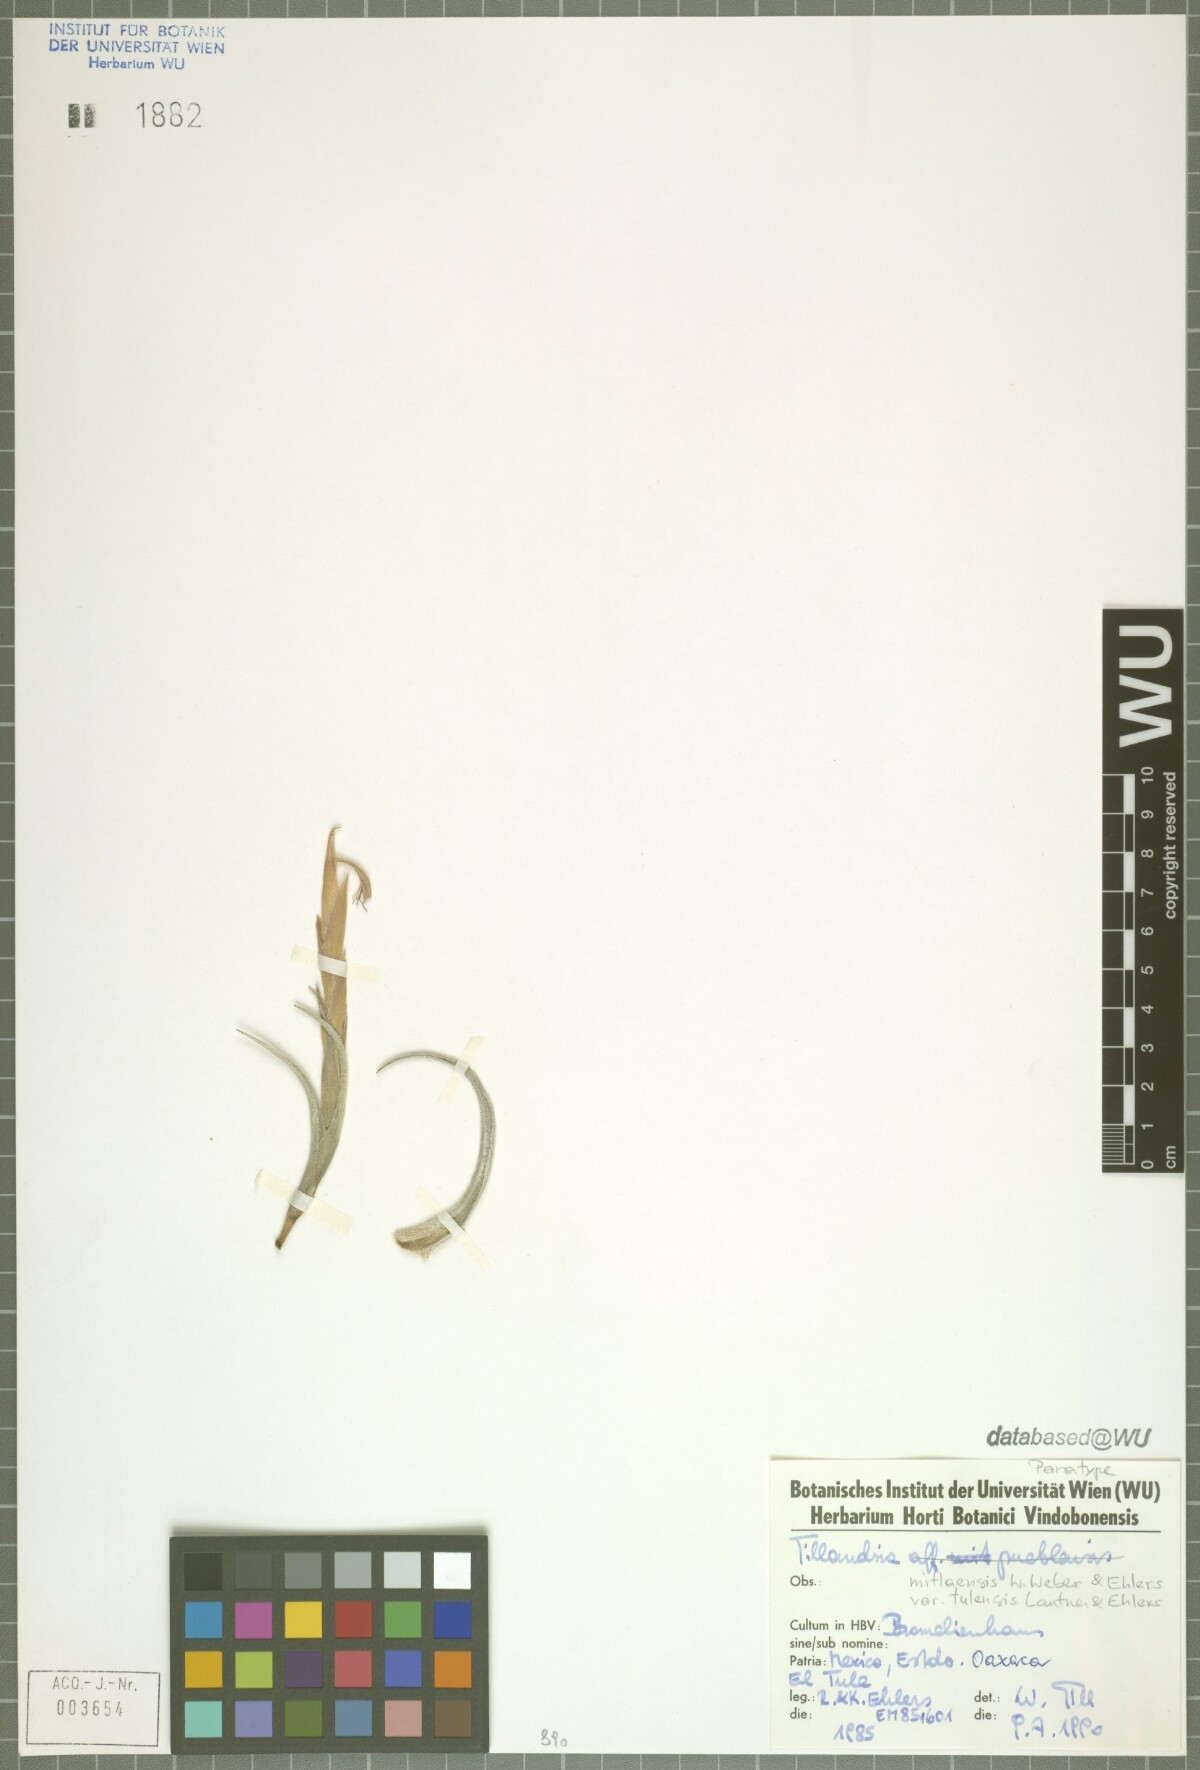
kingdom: Plantae
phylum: Tracheophyta
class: Liliopsida
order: Poales
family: Bromeliaceae
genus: Tillandsia
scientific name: Tillandsia mitlaensis
